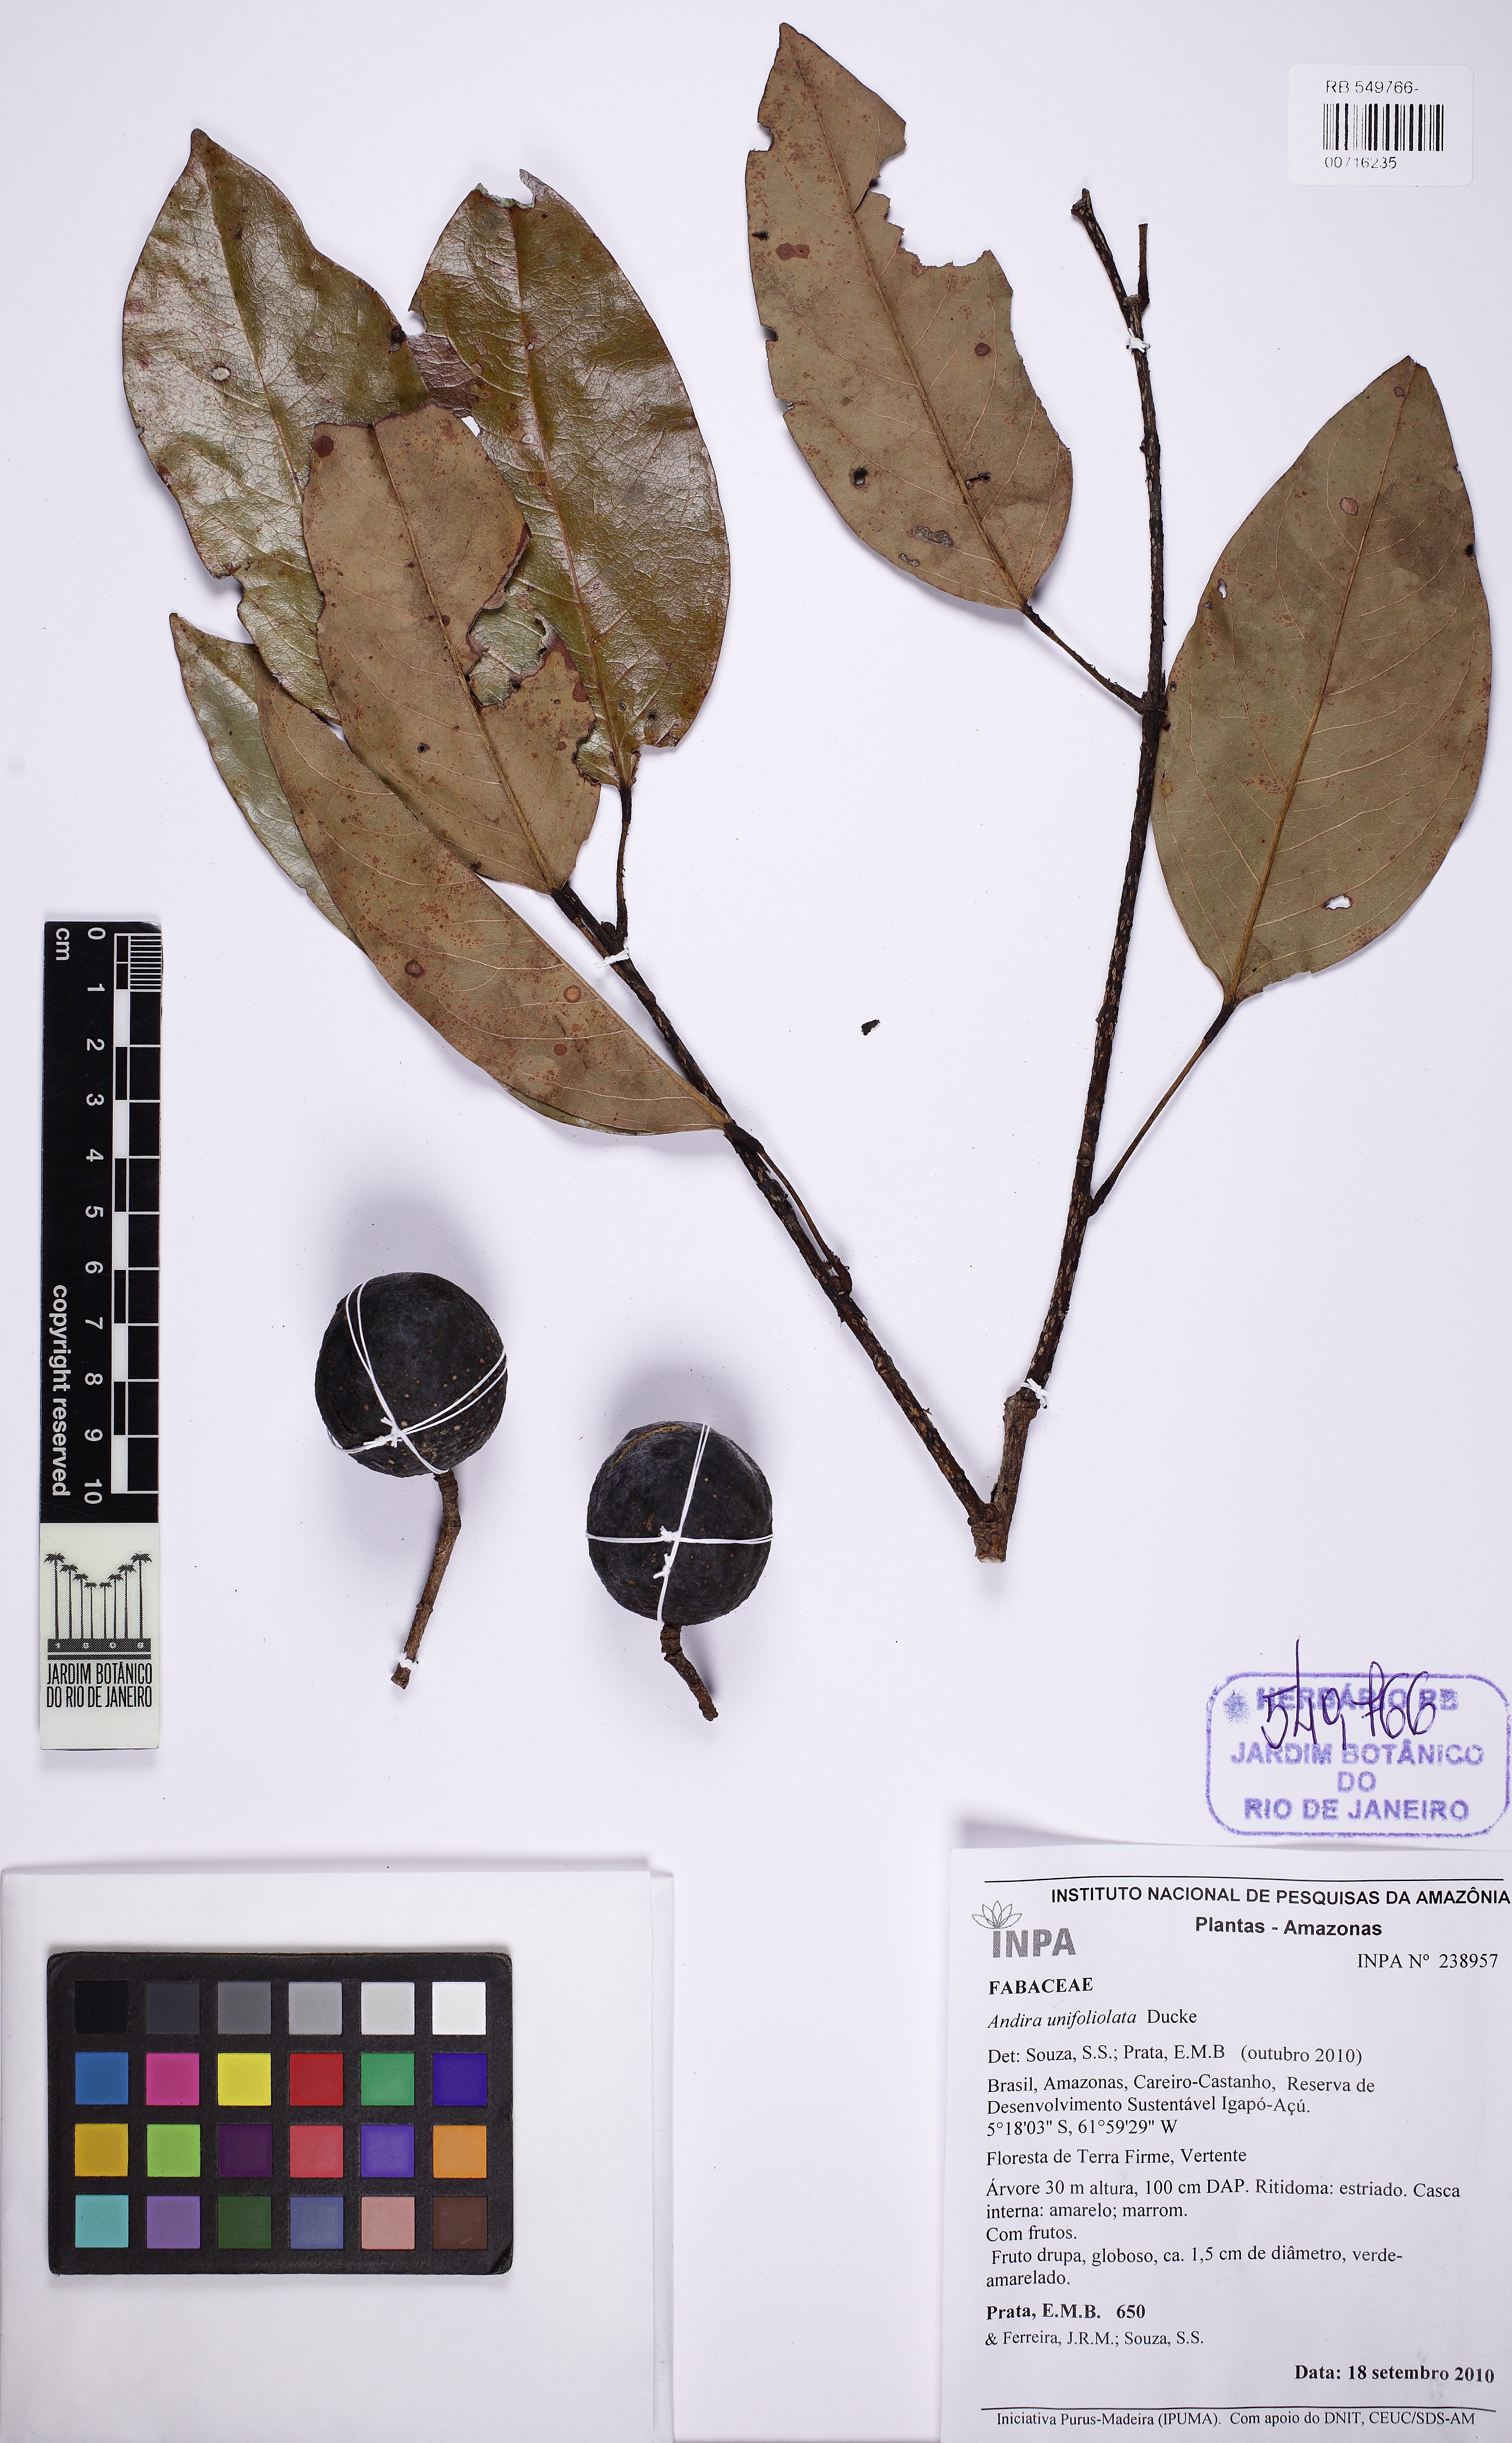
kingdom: Plantae
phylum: Tracheophyta
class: Magnoliopsida
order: Fabales
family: Fabaceae
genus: Andira
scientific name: Andira unifoliolata
